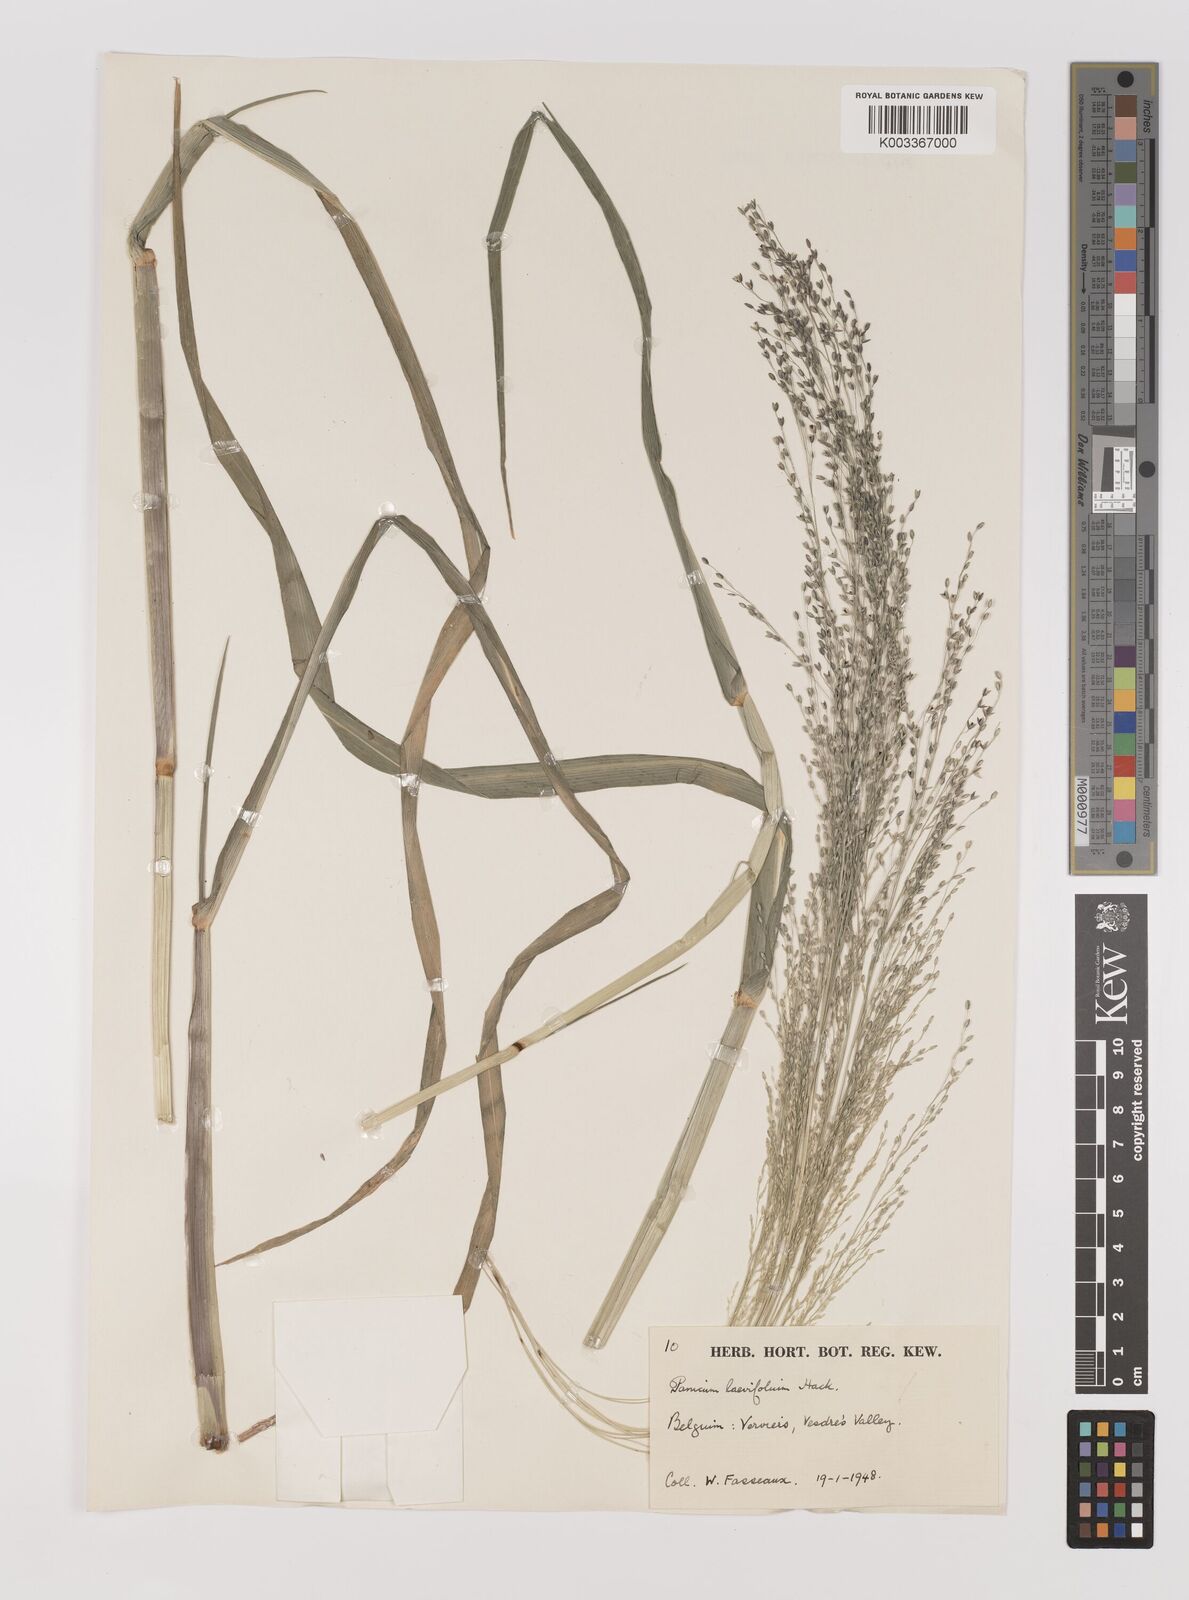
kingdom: Plantae
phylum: Tracheophyta
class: Liliopsida
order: Poales
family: Poaceae
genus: Panicum
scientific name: Panicum schinzii
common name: Sweet grass
